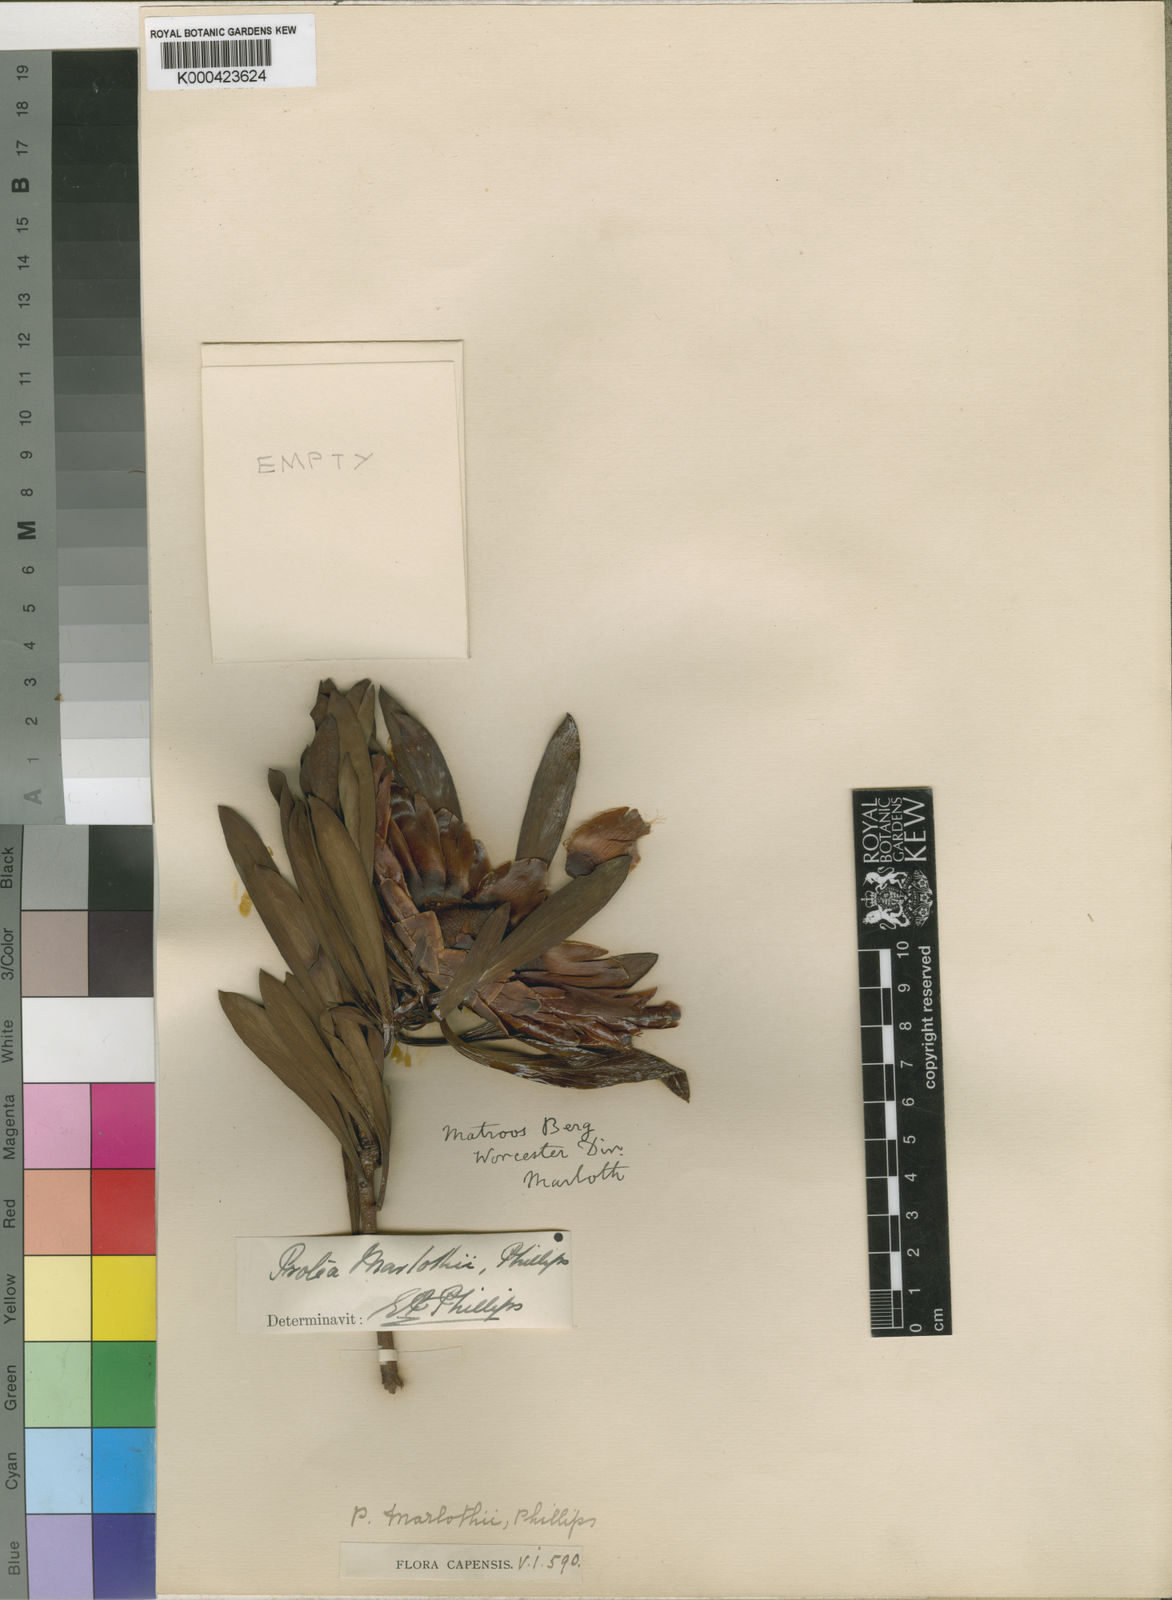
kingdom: Plantae
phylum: Tracheophyta
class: Magnoliopsida
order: Proteales
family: Proteaceae
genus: Protea
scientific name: Protea effusa
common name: Scarlet sugarbush
